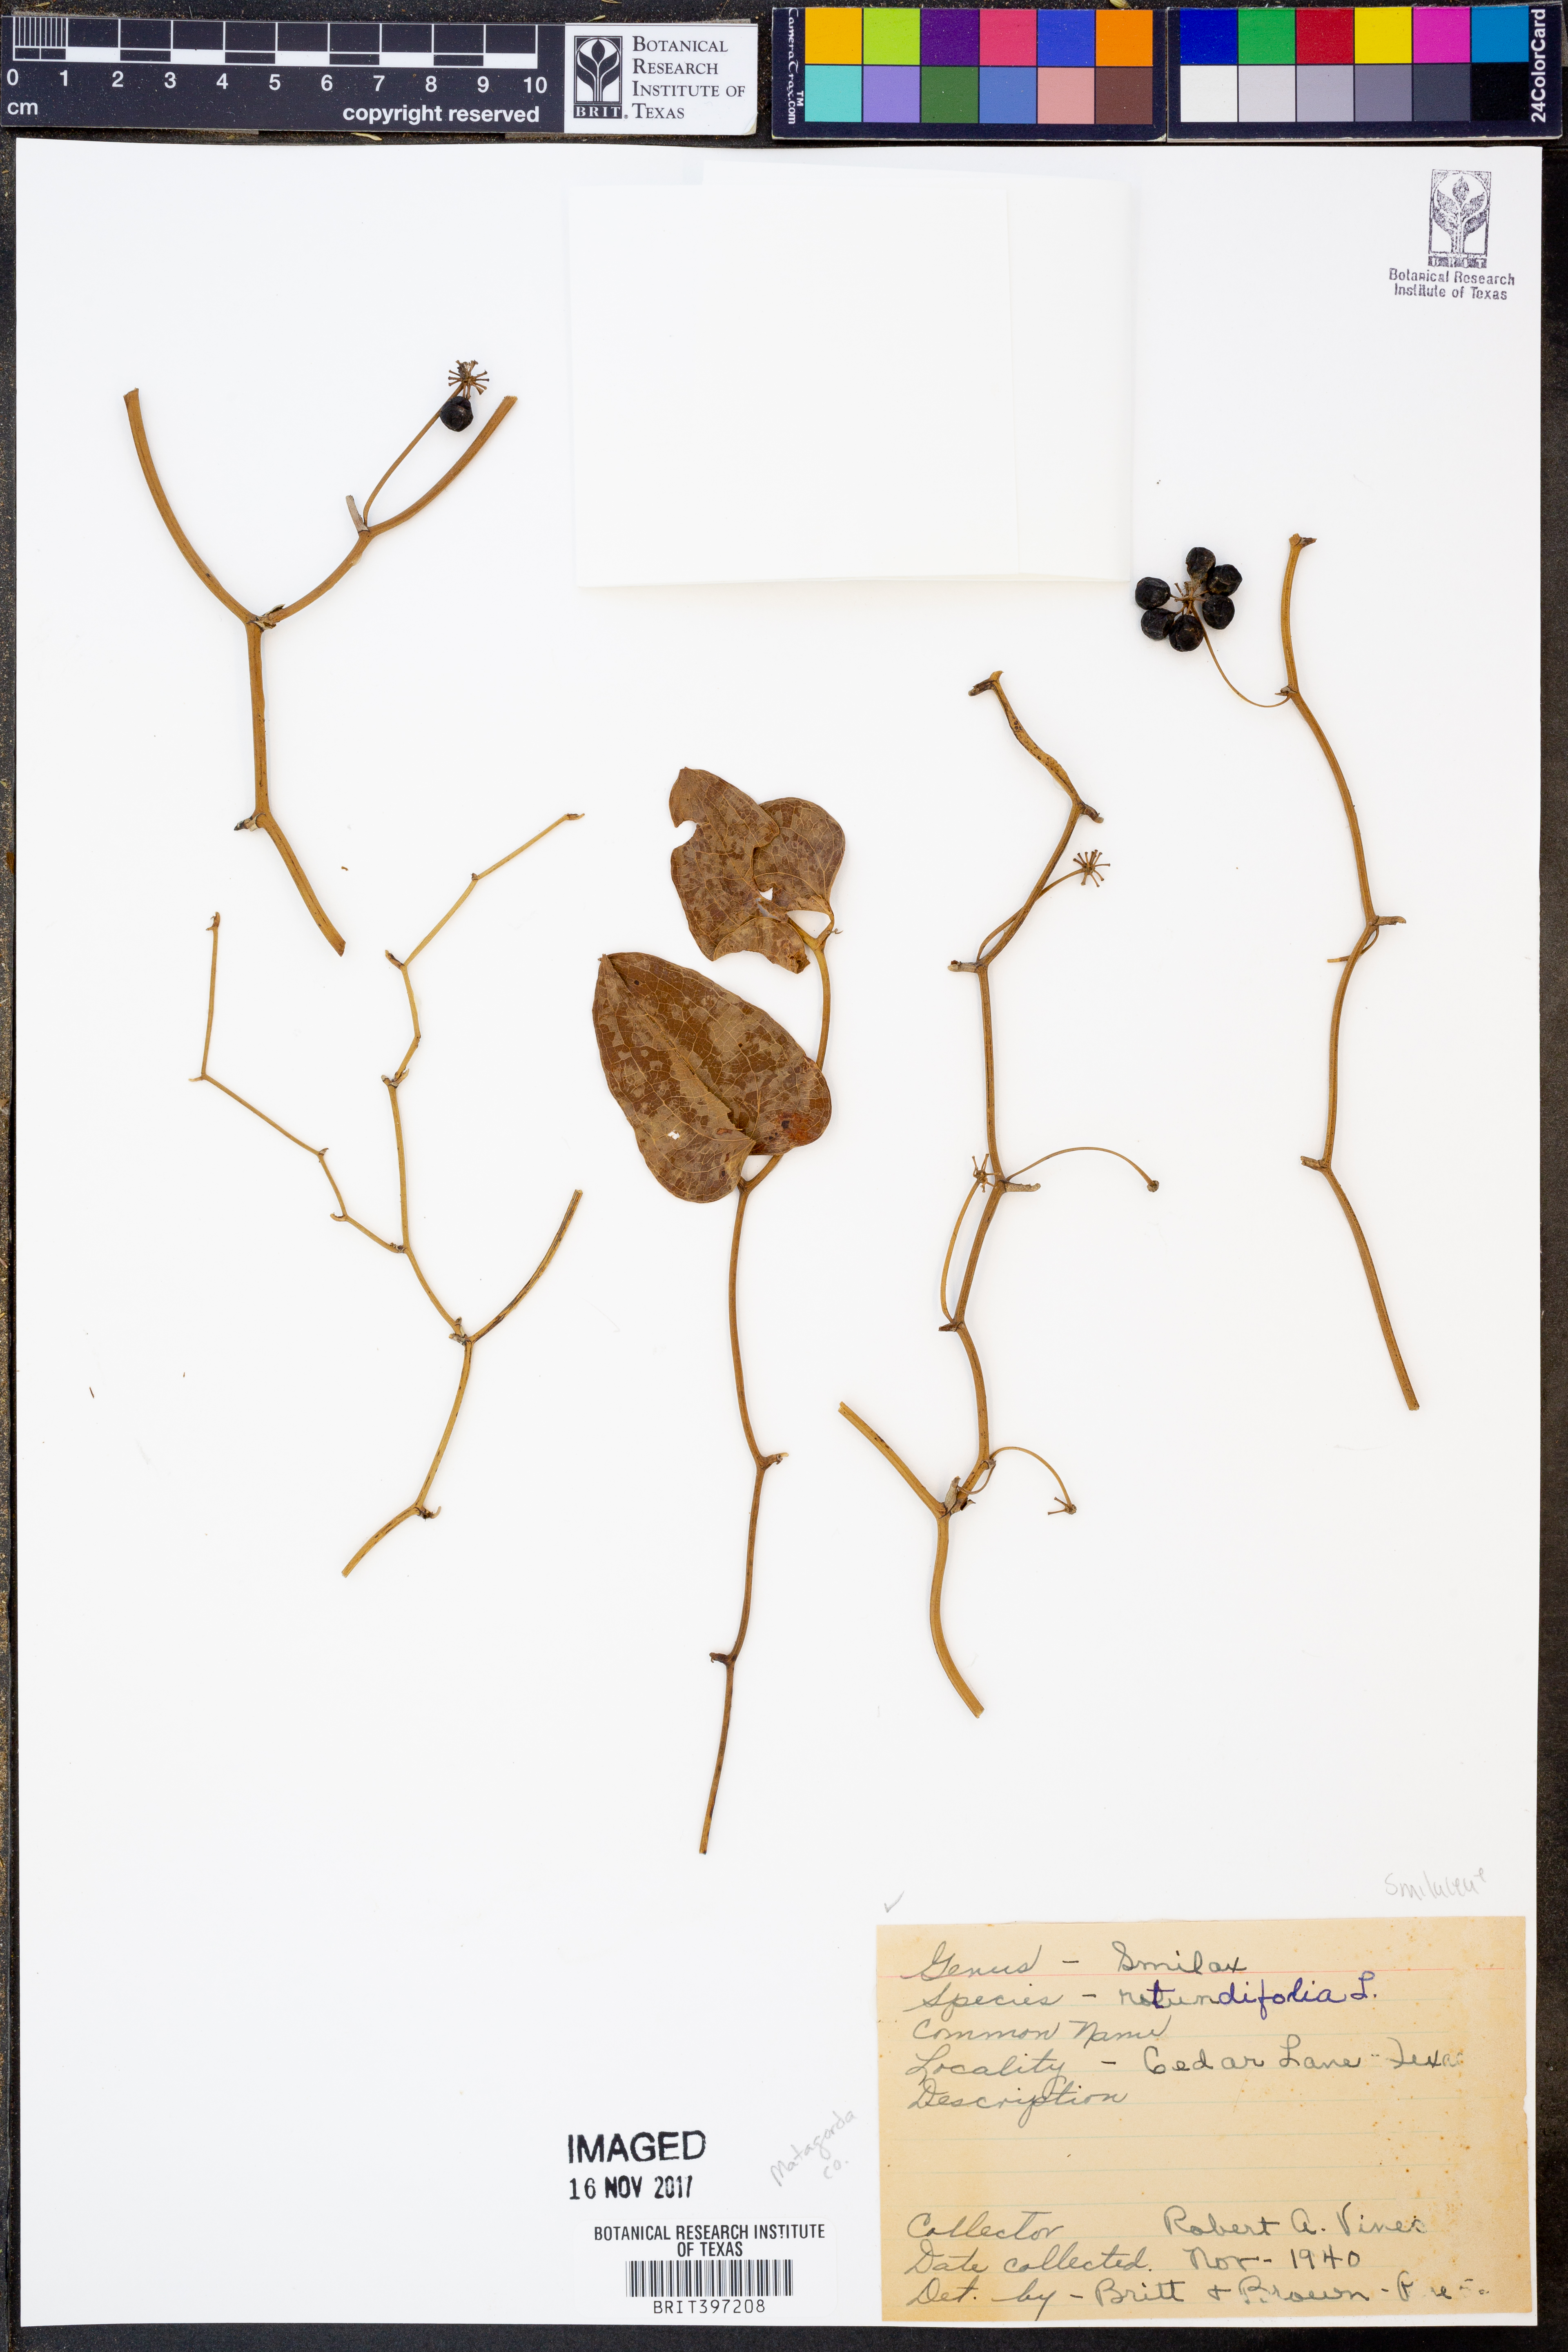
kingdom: Plantae
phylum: Tracheophyta
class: Liliopsida
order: Liliales
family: Smilacaceae
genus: Smilax
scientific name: Smilax rotundifolia
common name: Bullbriar
